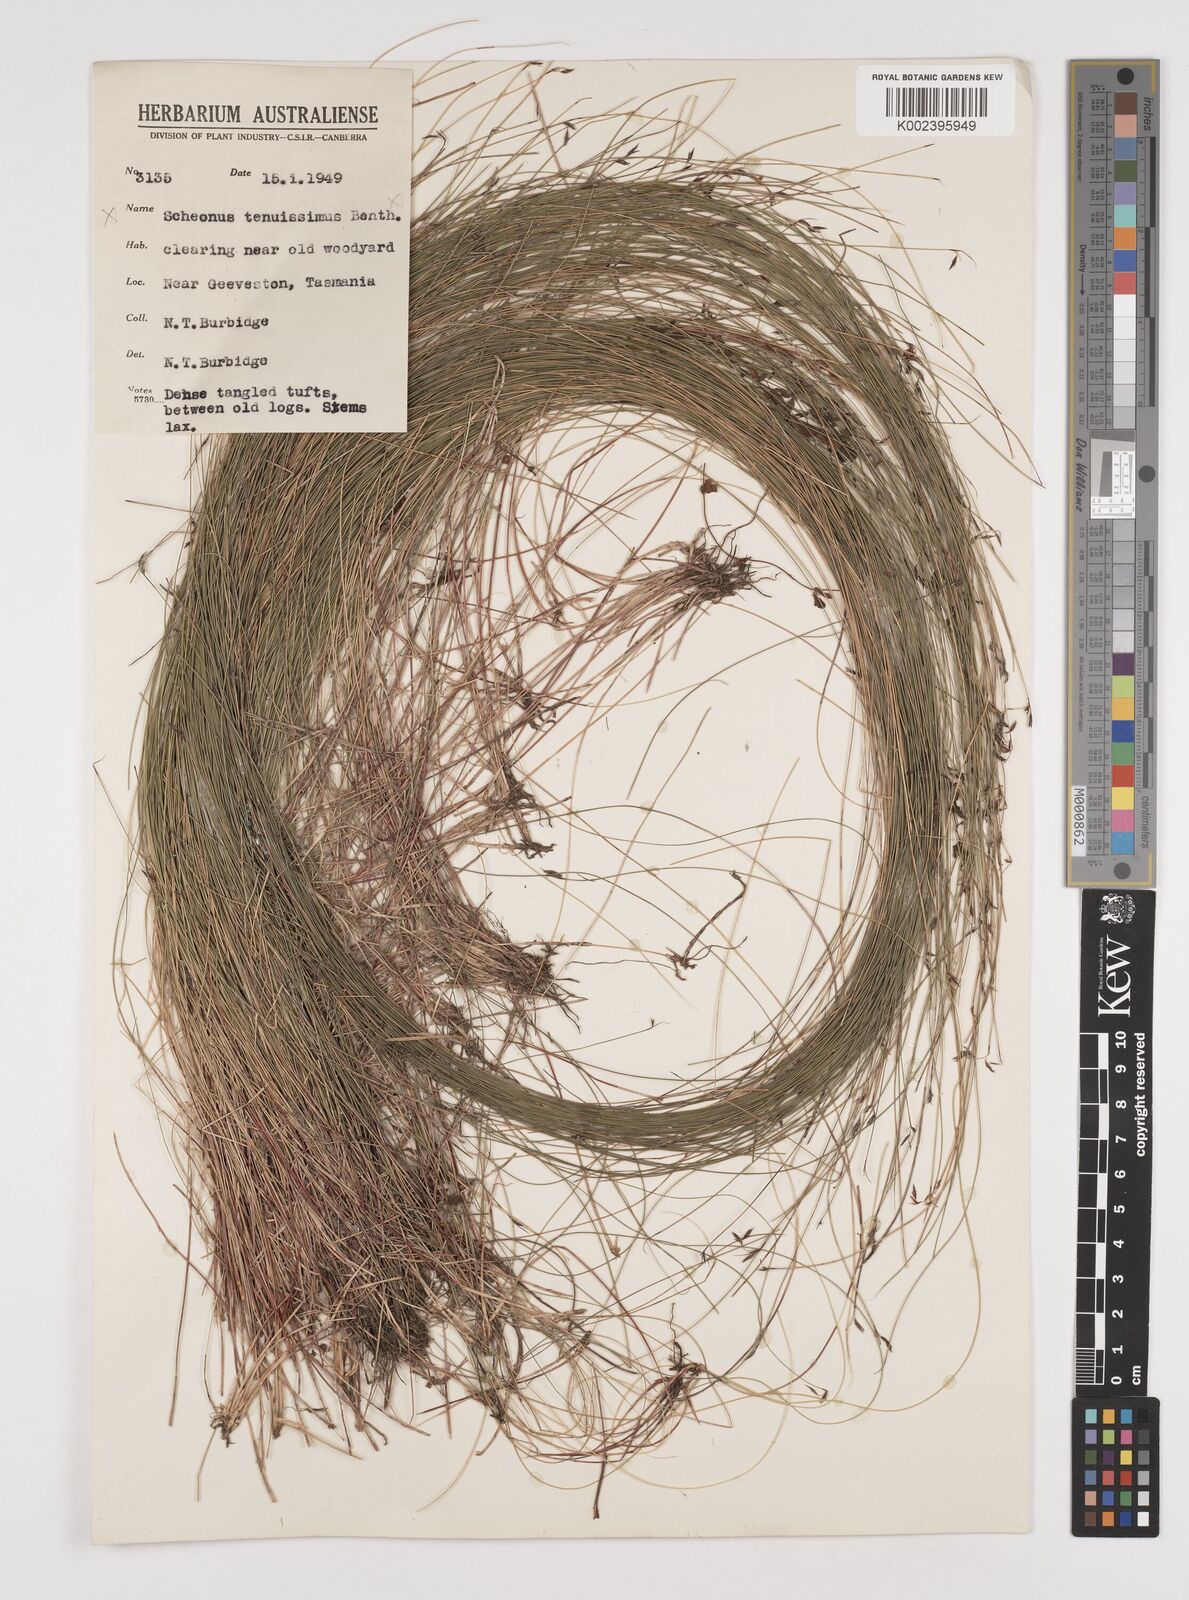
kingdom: Plantae
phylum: Tracheophyta
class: Liliopsida
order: Poales
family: Cyperaceae
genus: Tetraria
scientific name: Tetraria capillaris
